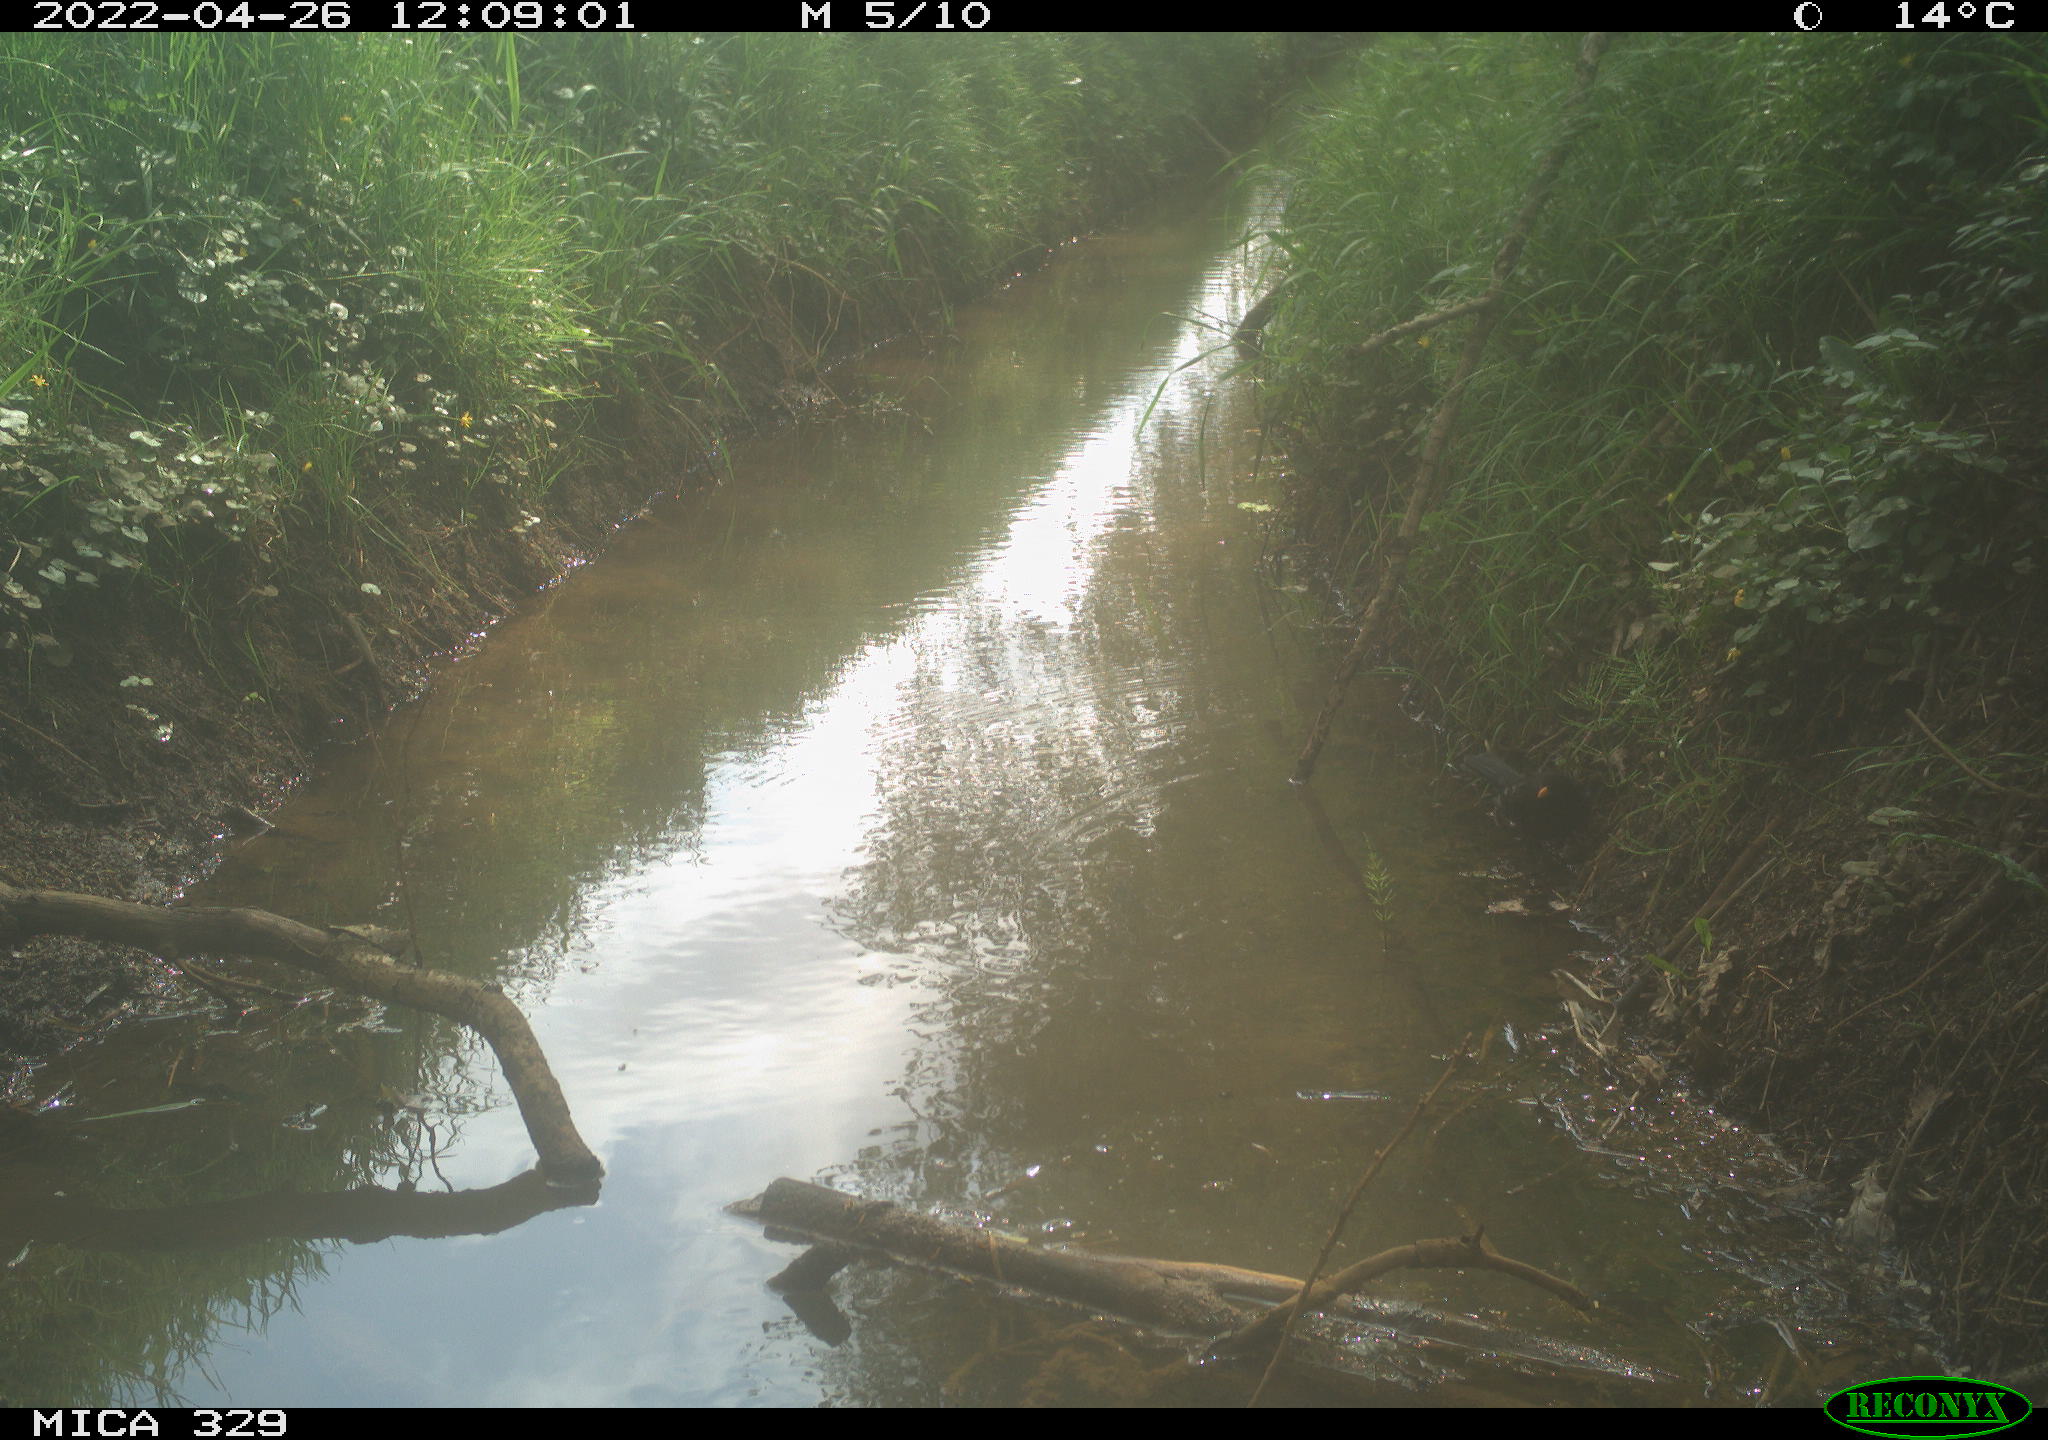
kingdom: Animalia
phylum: Chordata
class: Aves
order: Passeriformes
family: Turdidae
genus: Turdus
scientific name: Turdus merula
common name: Common blackbird
